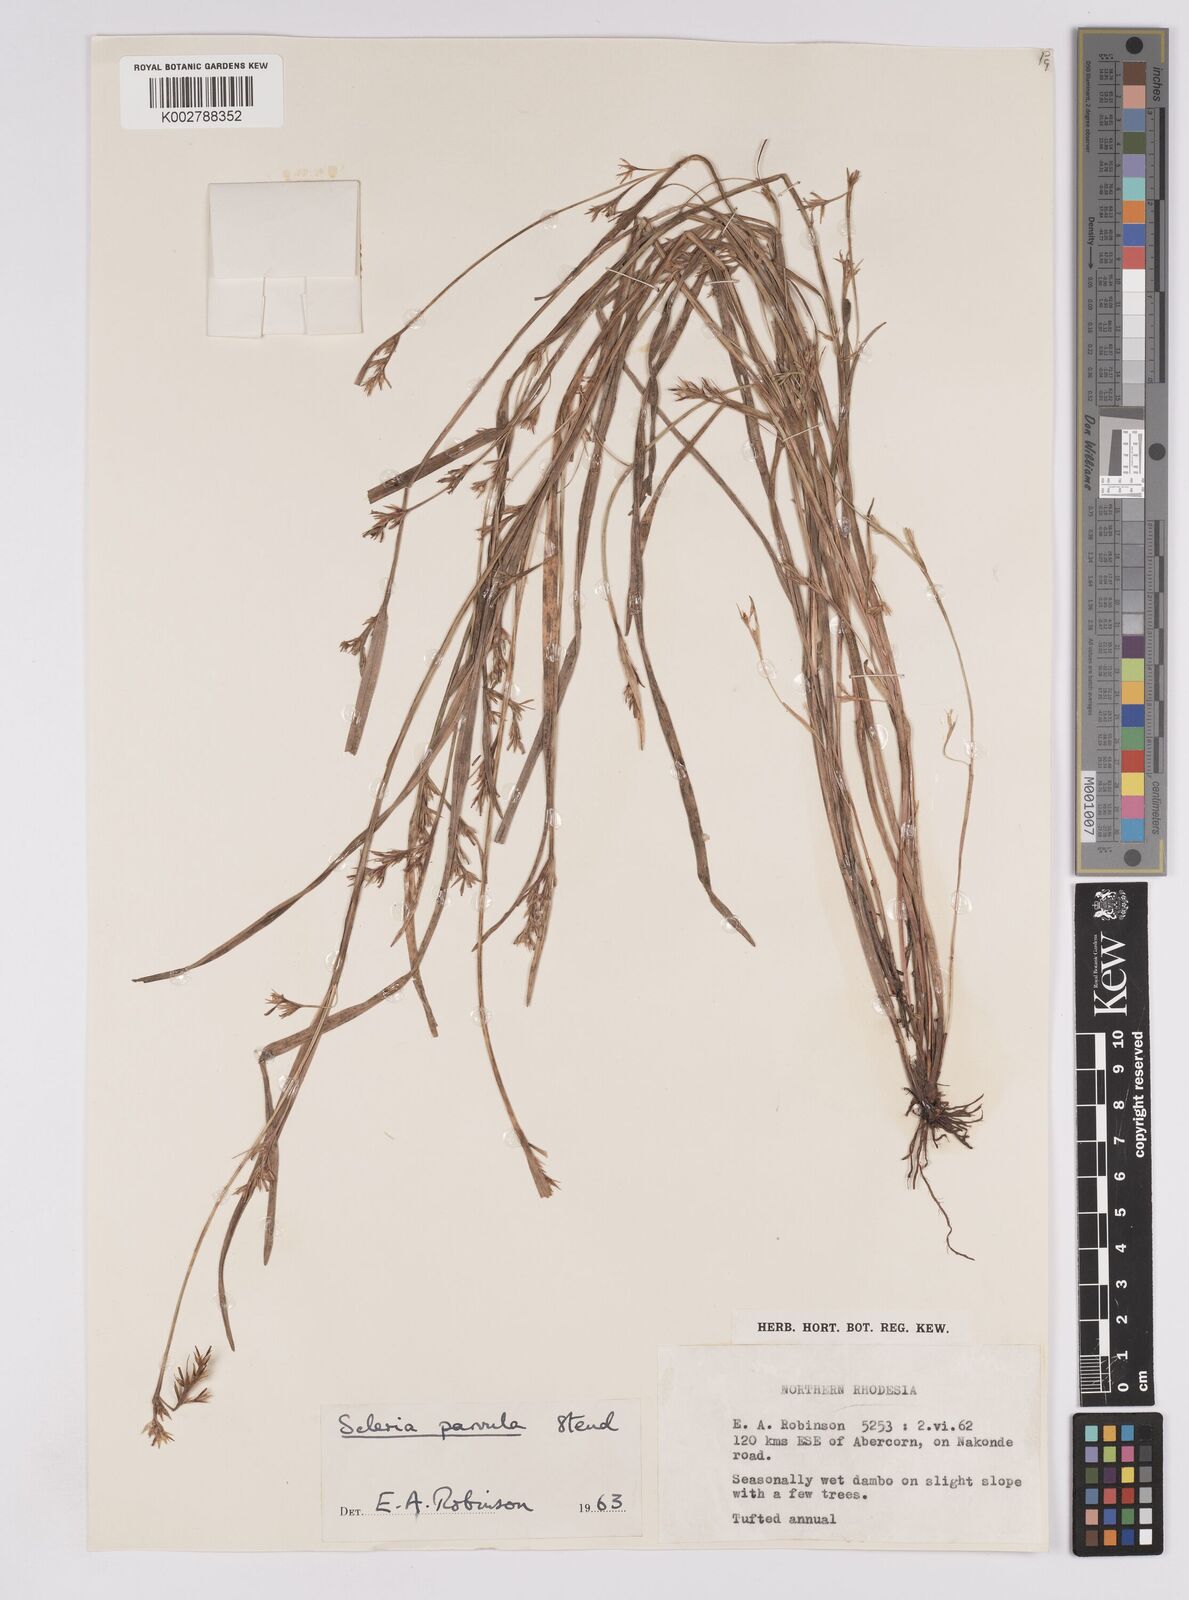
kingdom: Plantae
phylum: Tracheophyta
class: Liliopsida
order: Poales
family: Cyperaceae
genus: Scleria
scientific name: Scleria parvula
